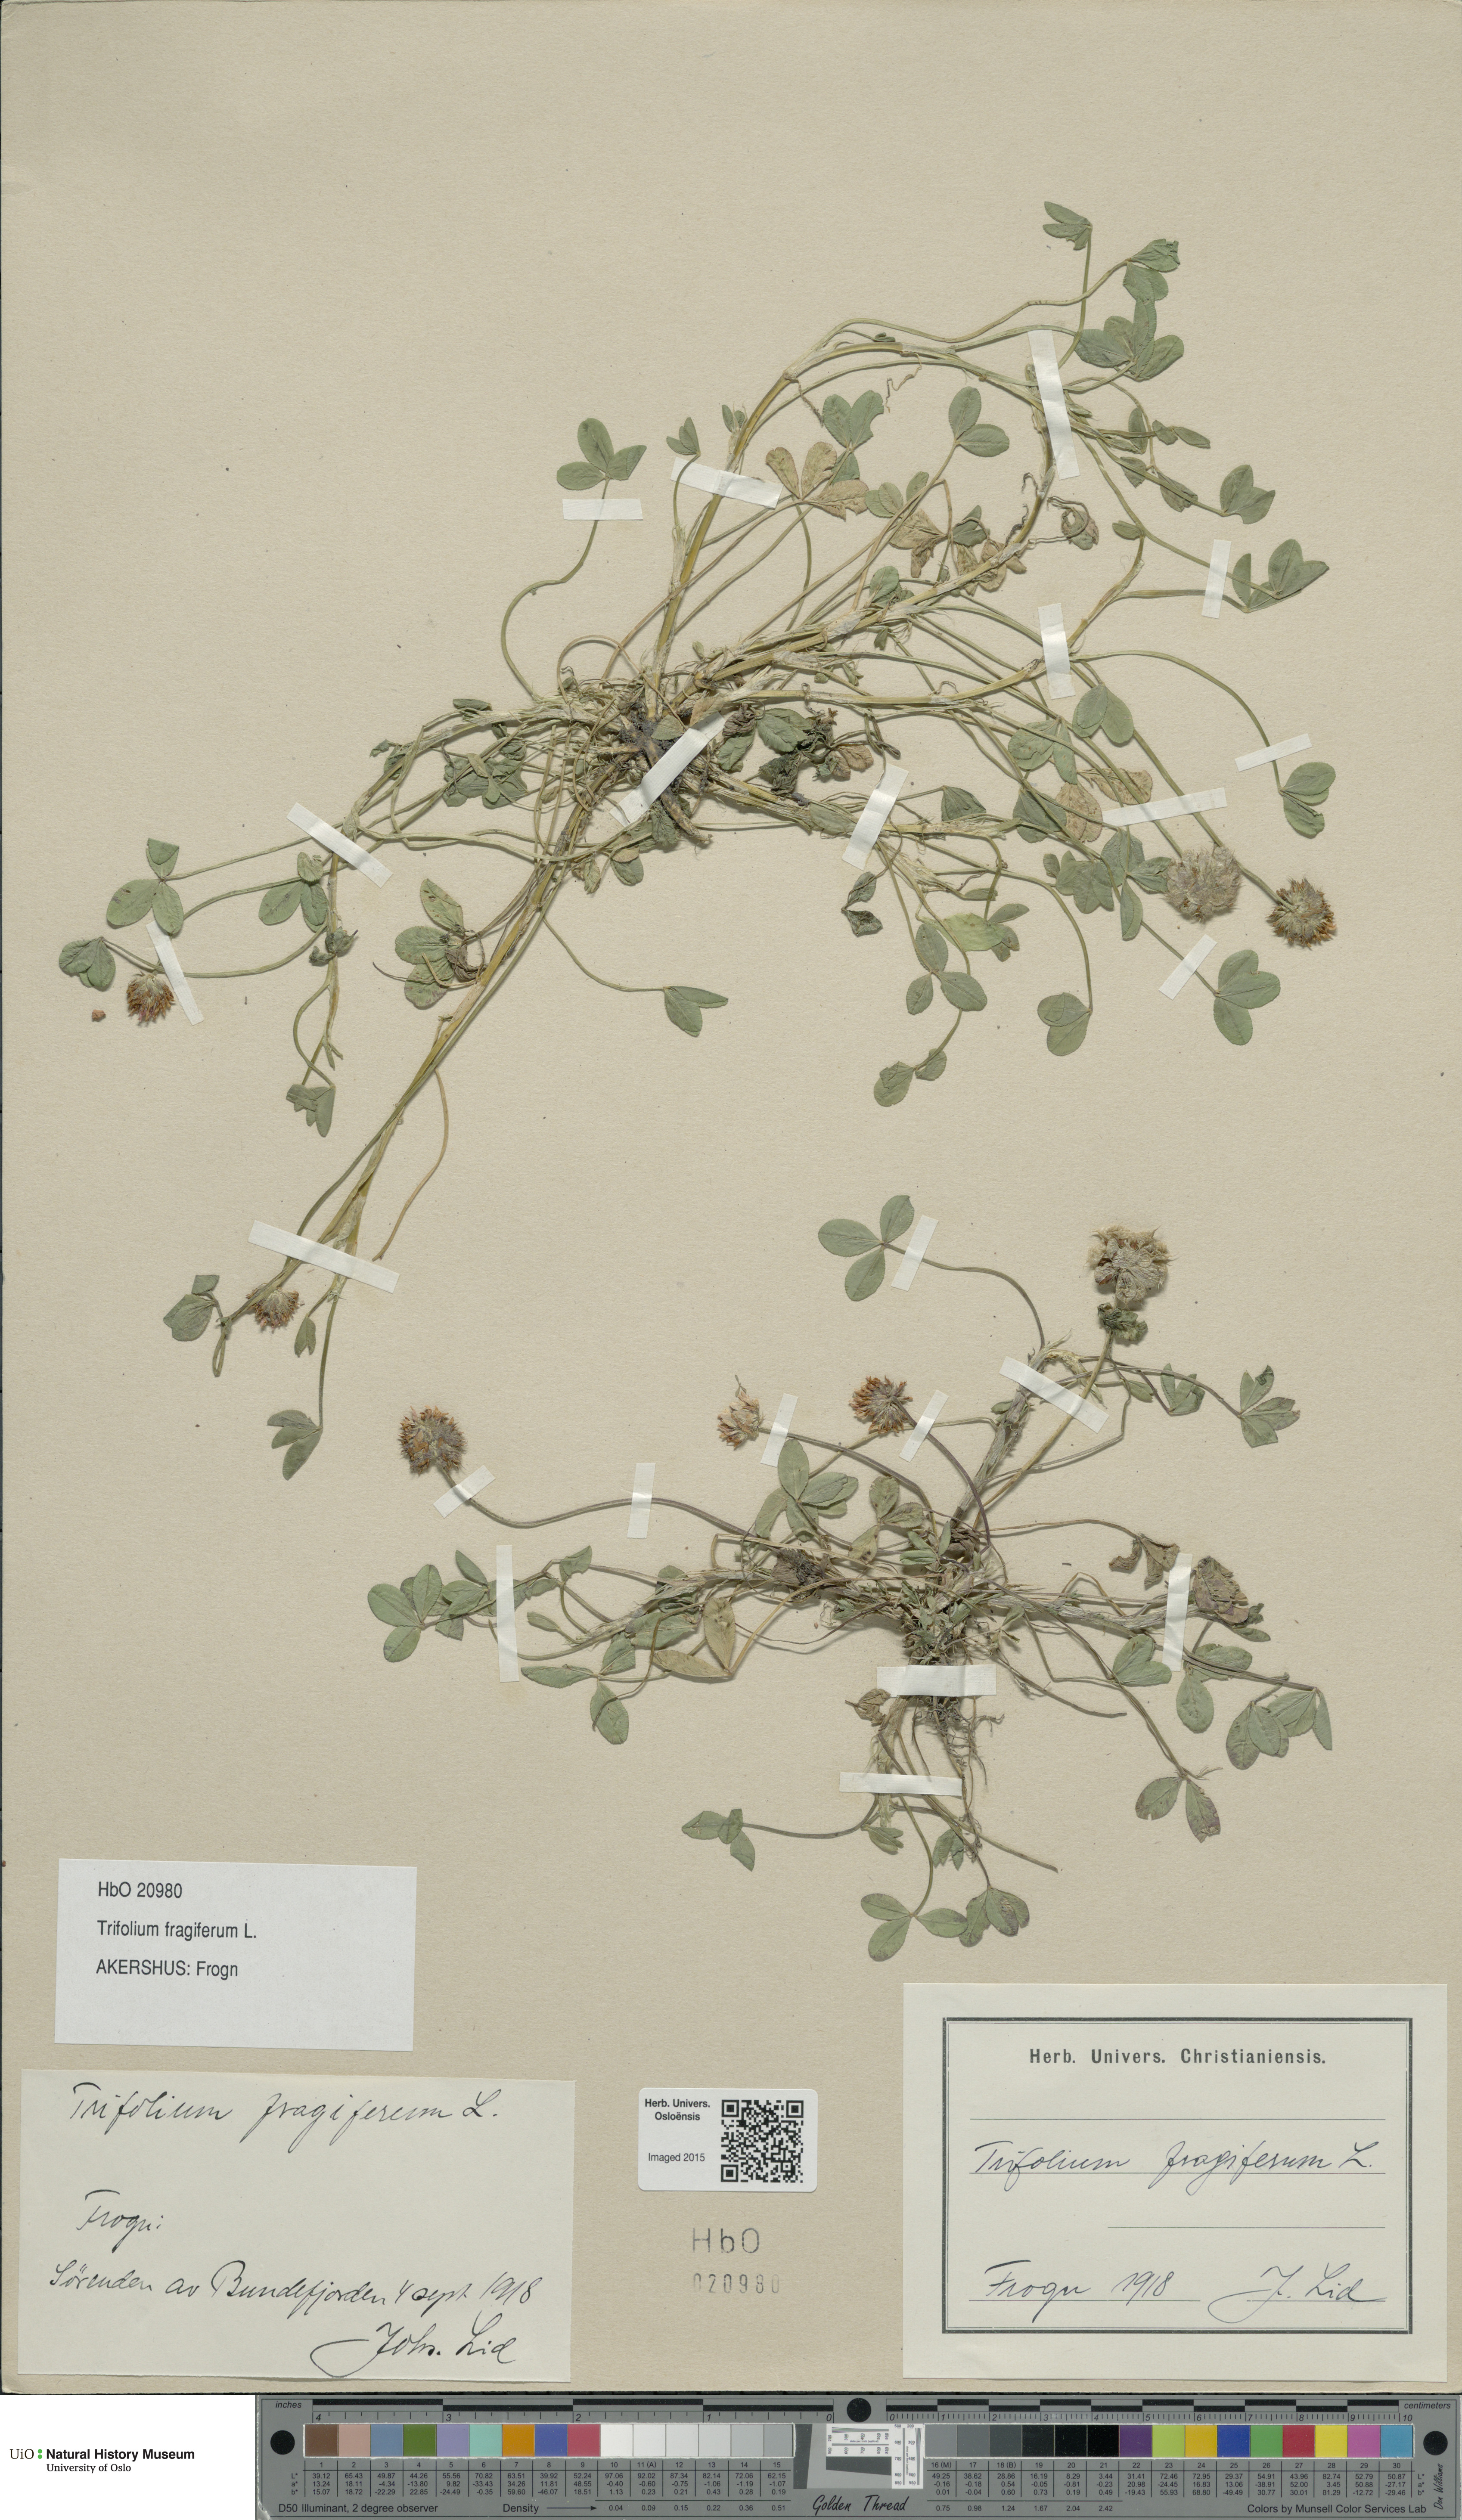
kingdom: Plantae
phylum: Tracheophyta
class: Magnoliopsida
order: Fabales
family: Fabaceae
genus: Trifolium
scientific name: Trifolium fragiferum
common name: Strawberry clover
